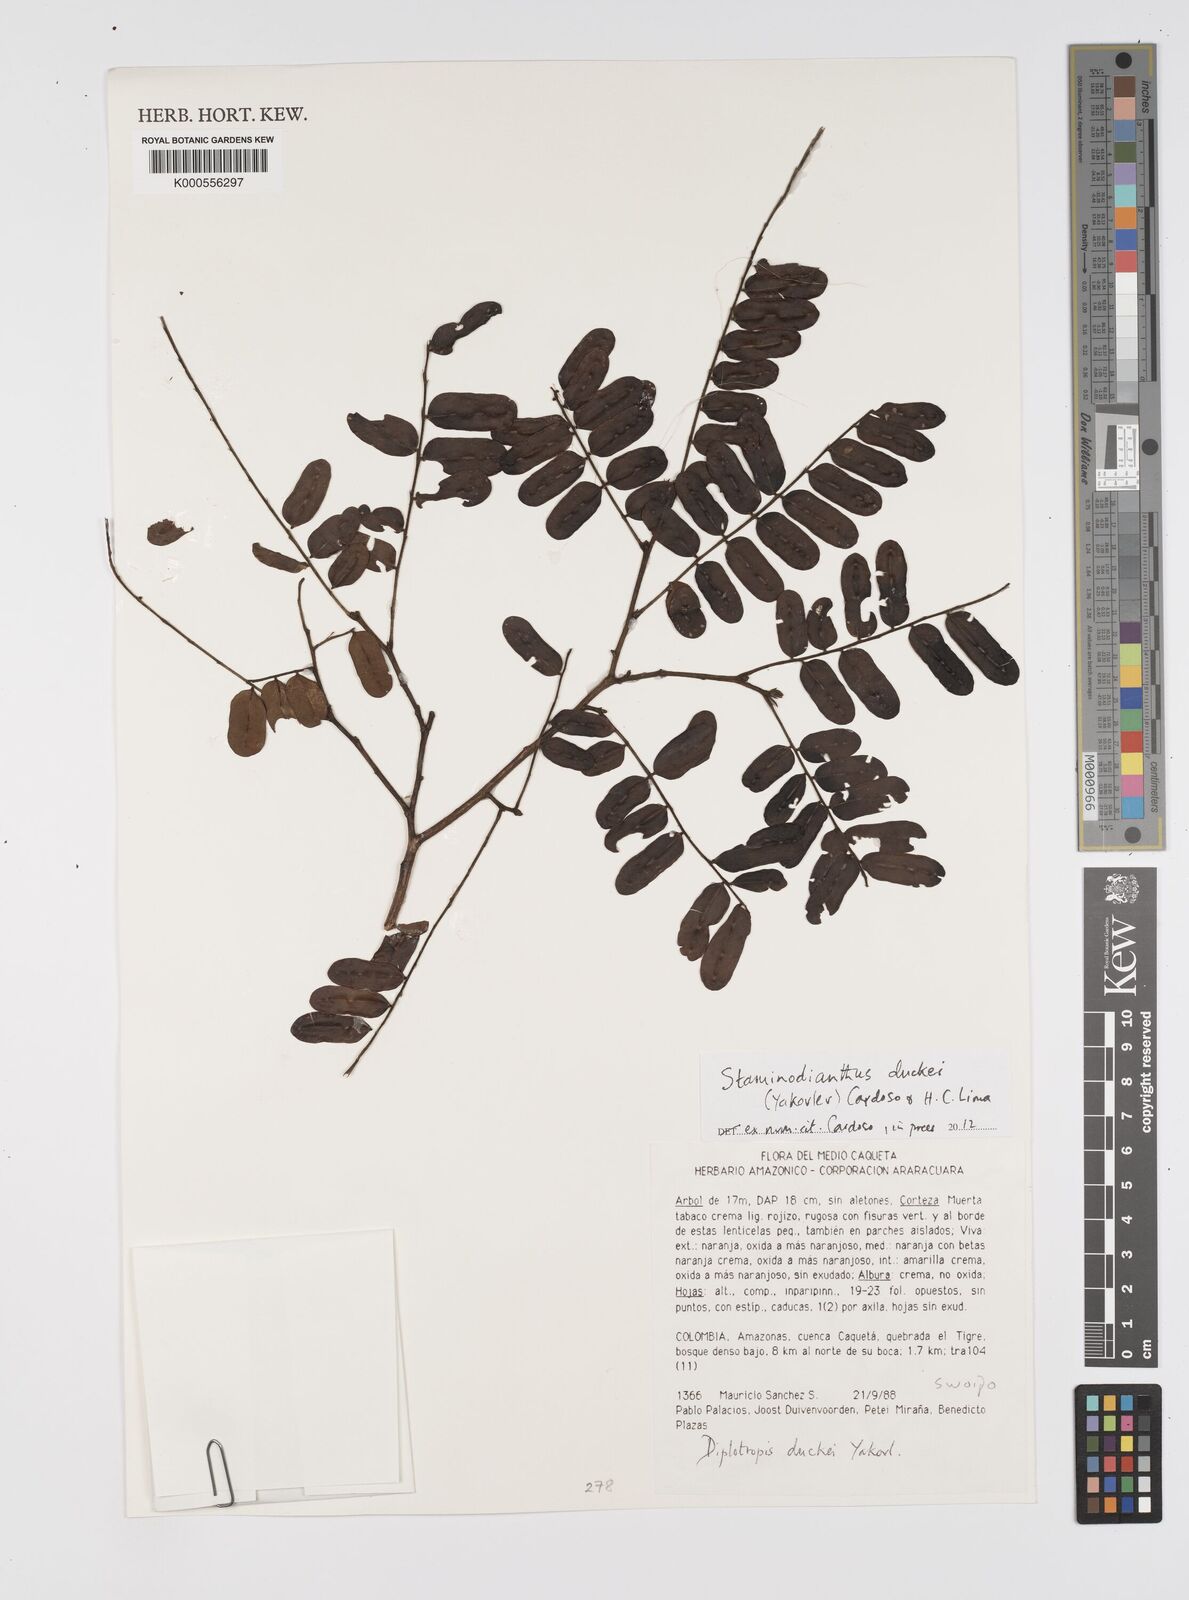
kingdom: Plantae
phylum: Tracheophyta
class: Magnoliopsida
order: Fabales
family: Fabaceae
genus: Staminodianthus
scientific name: Staminodianthus duckei
